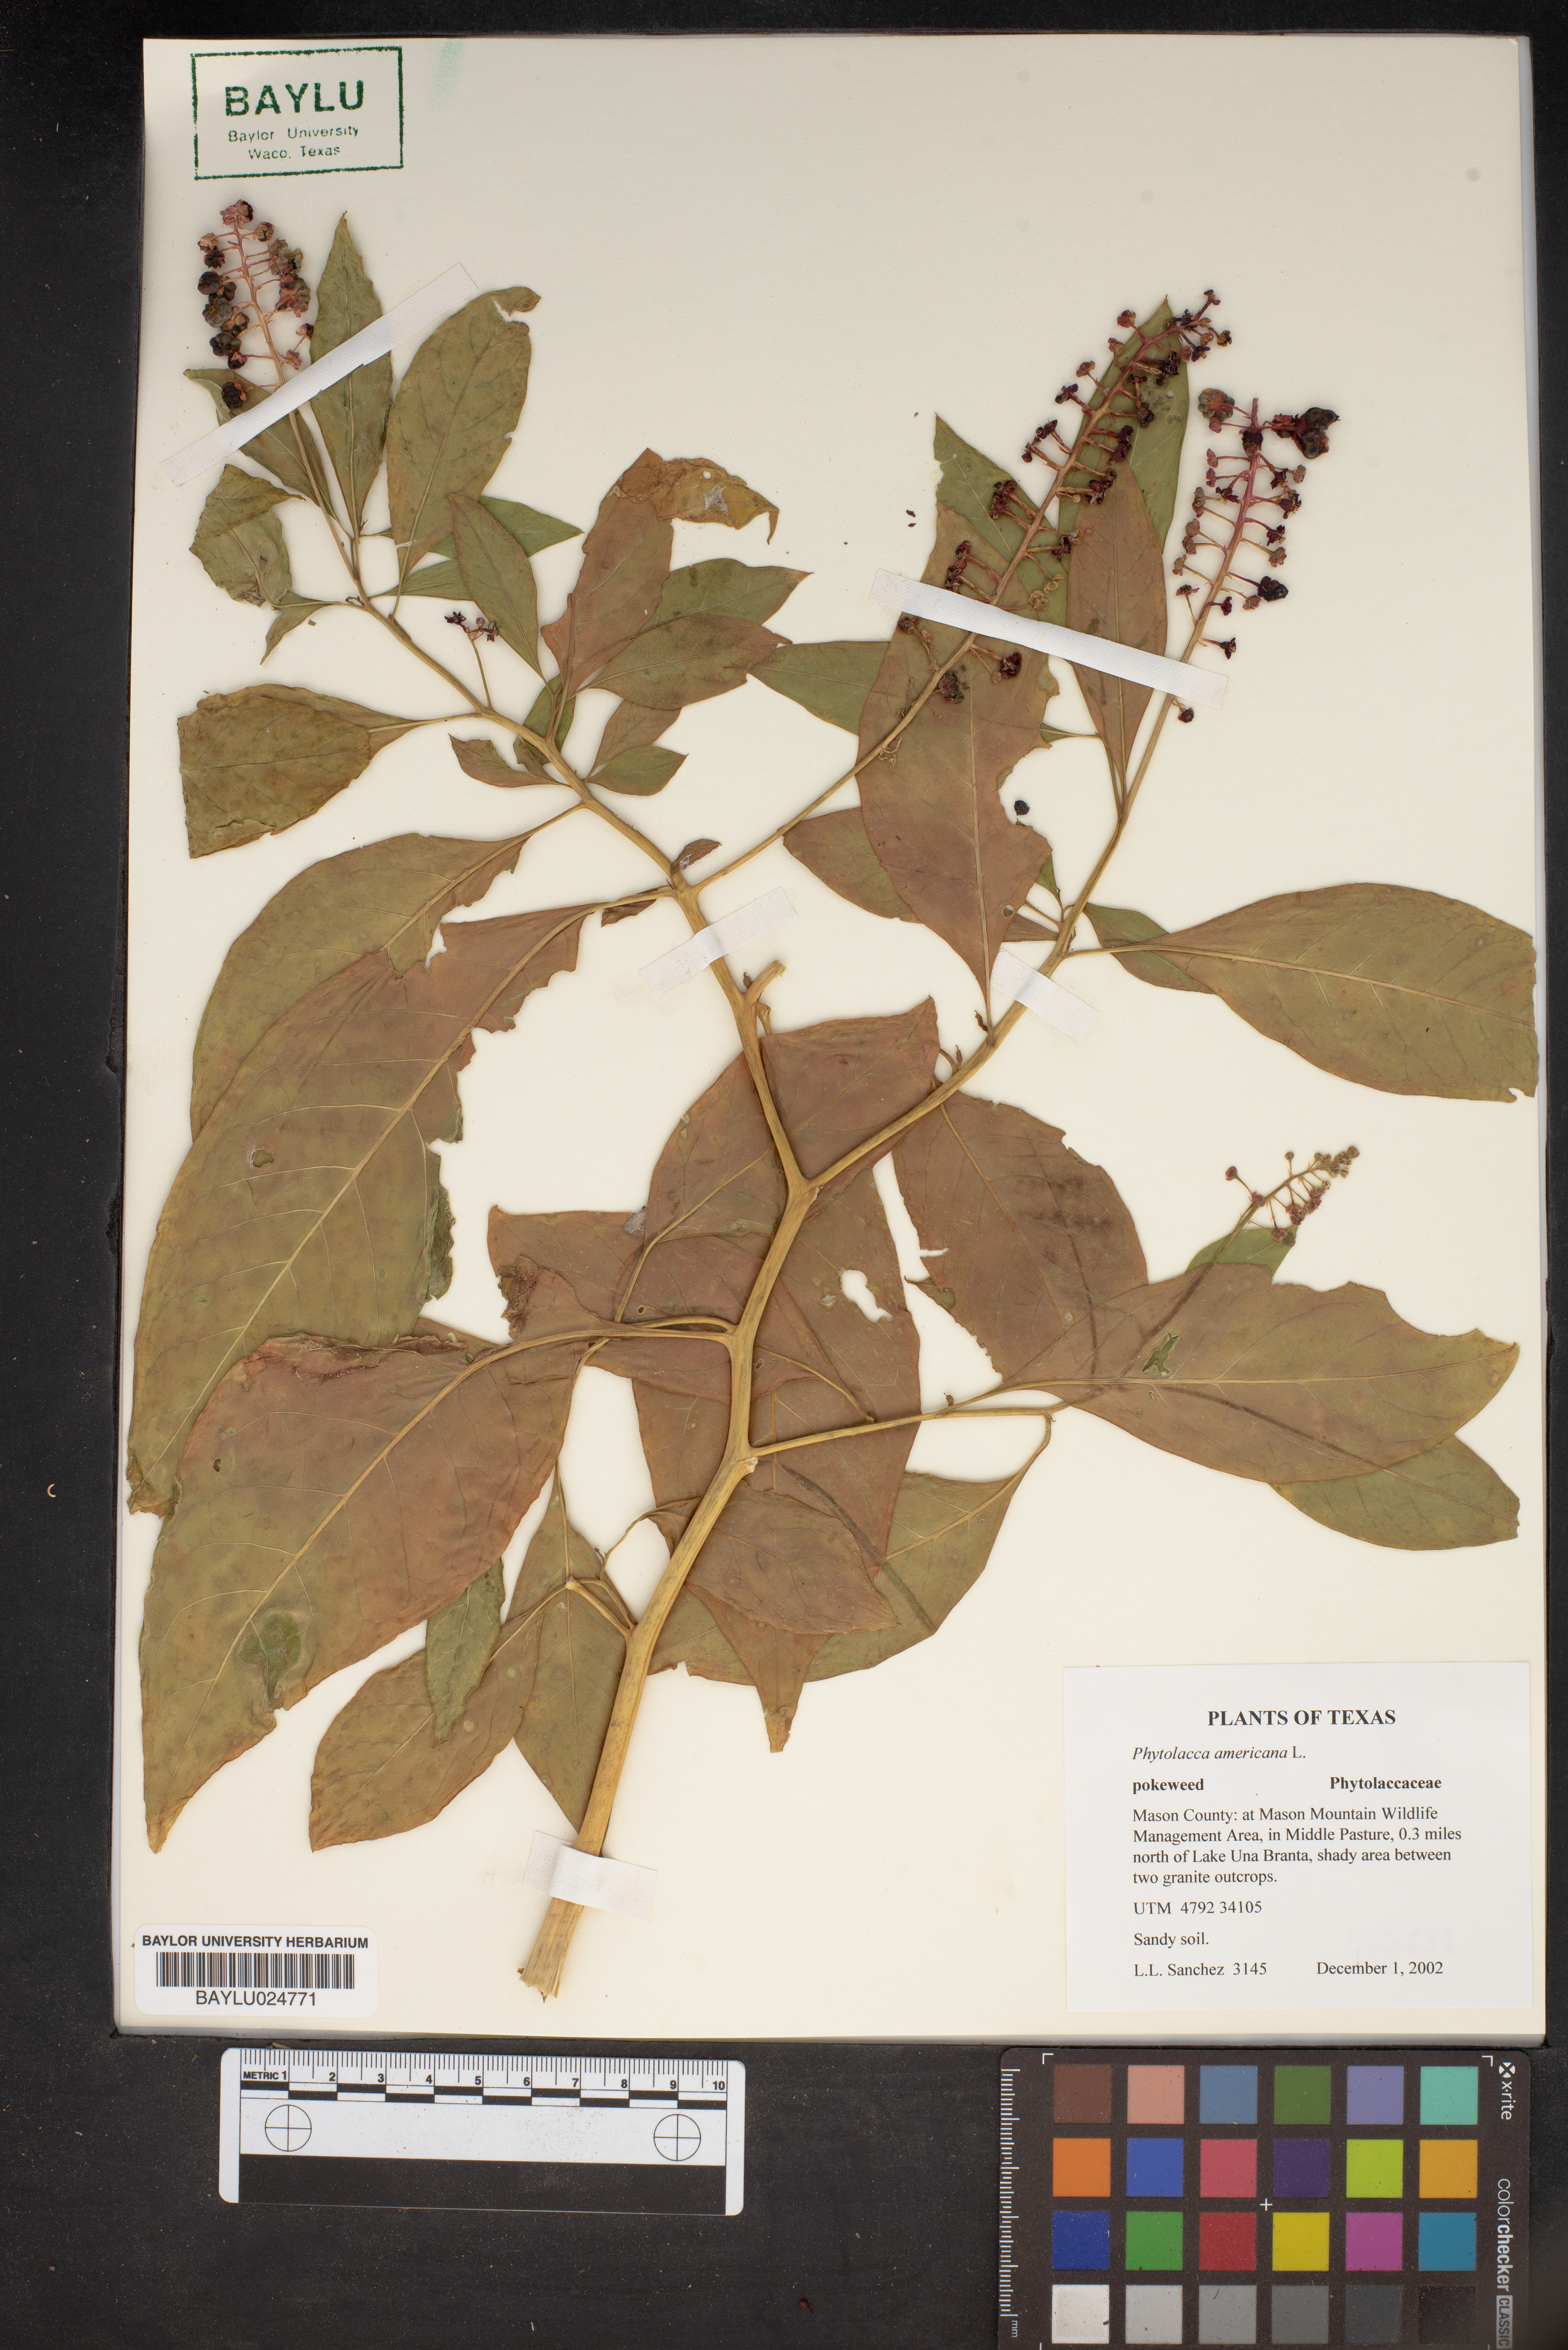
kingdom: Plantae
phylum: Tracheophyta
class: Magnoliopsida
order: Caryophyllales
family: Phytolaccaceae
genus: Phytolacca
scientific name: Phytolacca americana
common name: American pokeweed
